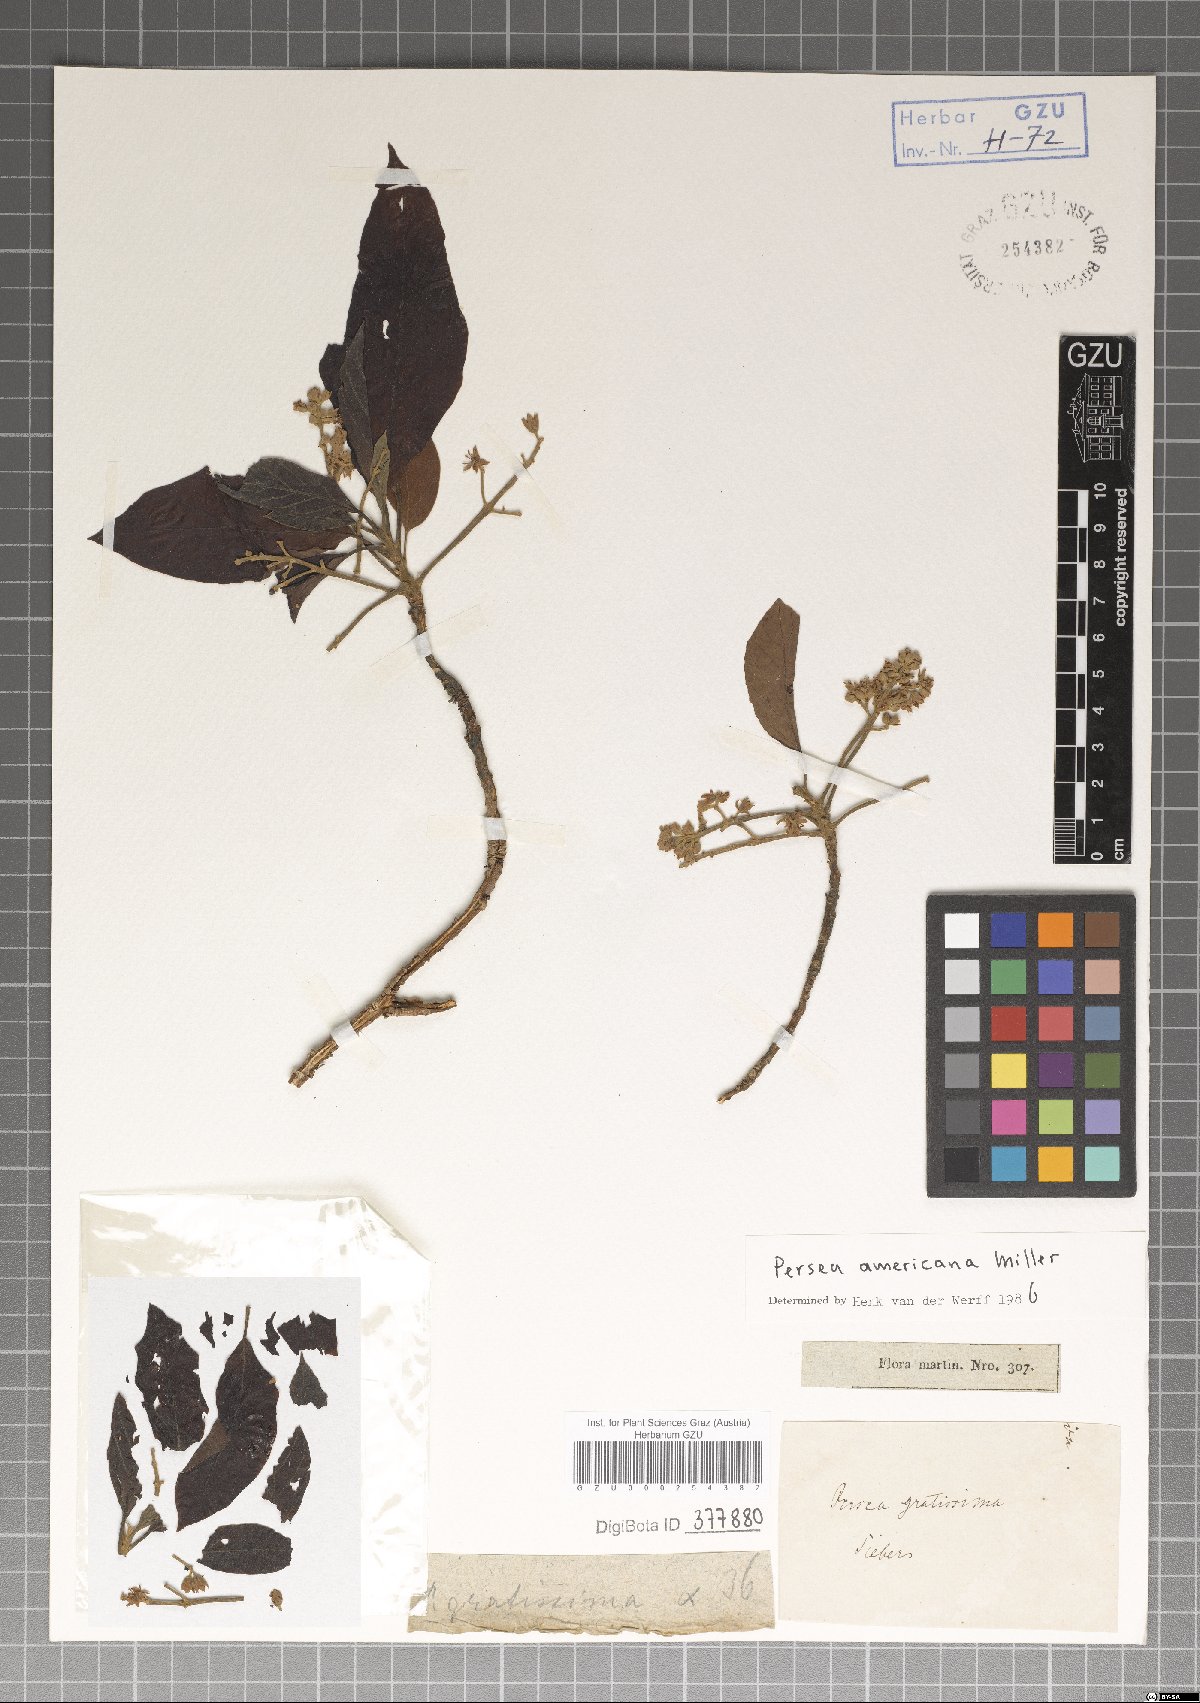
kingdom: Plantae
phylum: Tracheophyta
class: Magnoliopsida
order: Laurales
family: Lauraceae
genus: Persea
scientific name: Persea americana
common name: Avocado
